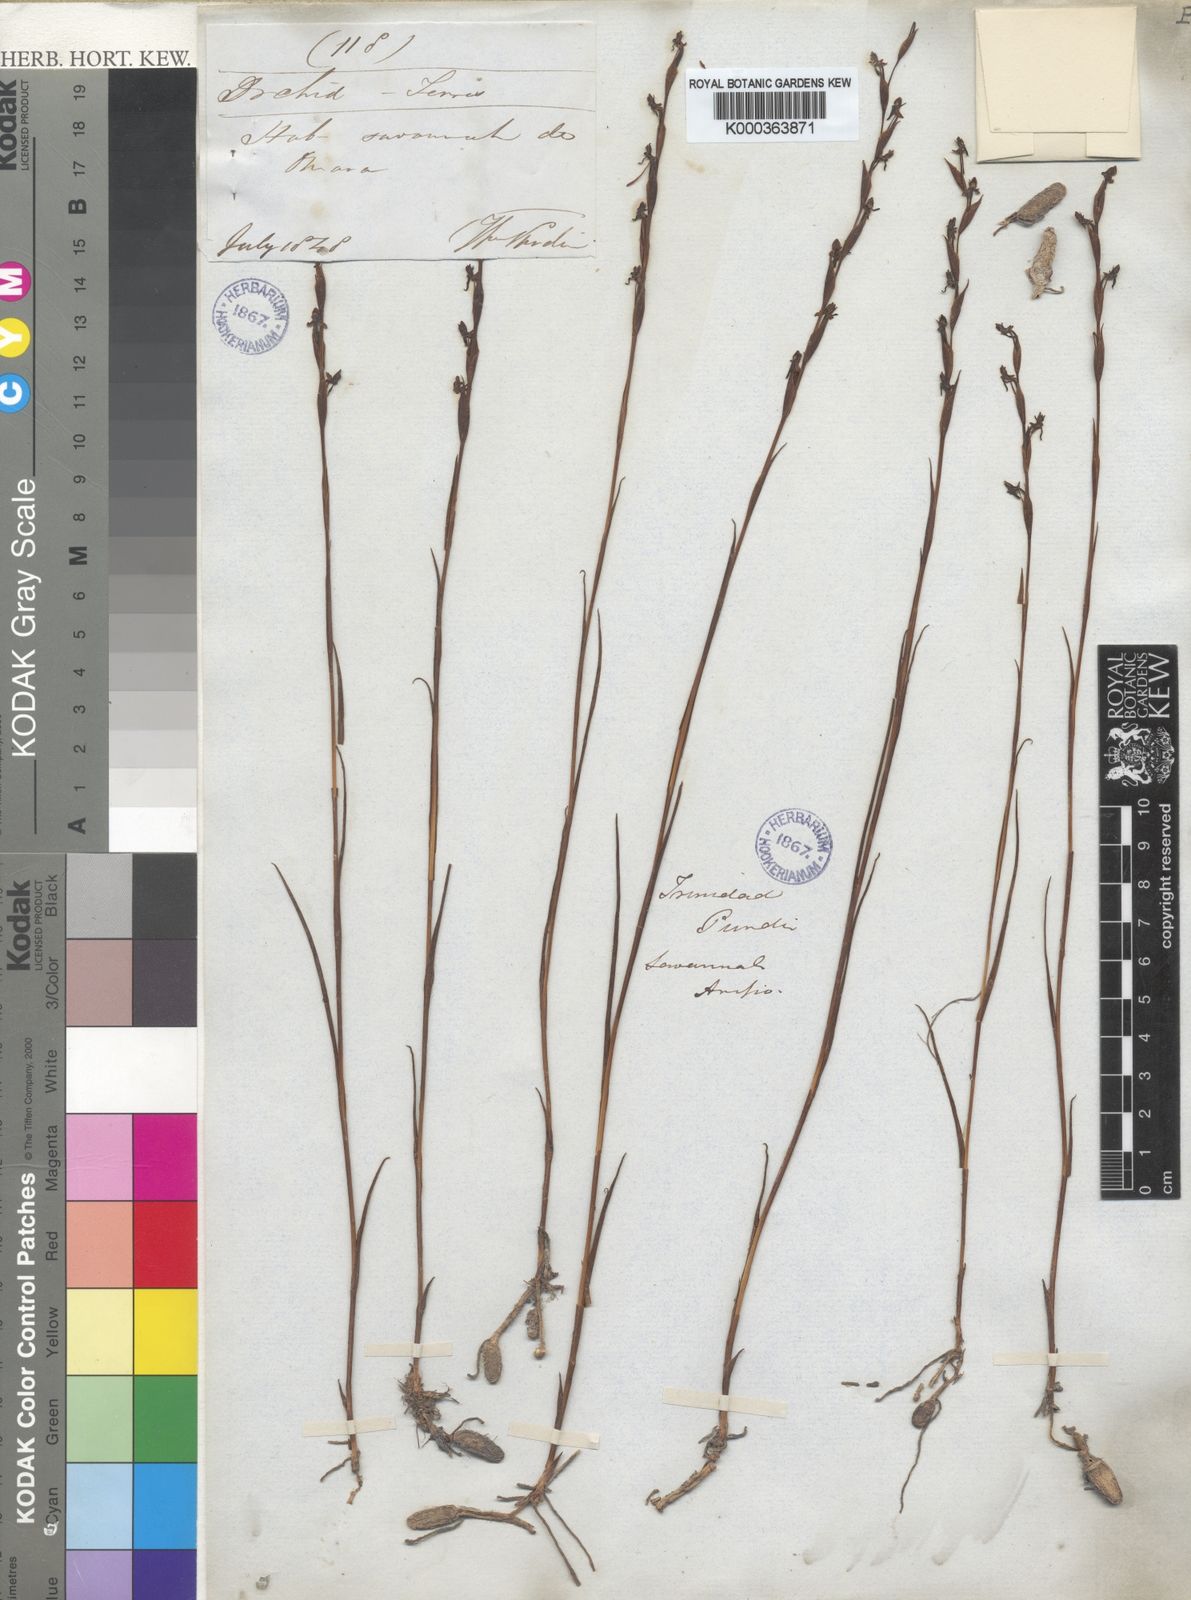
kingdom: Plantae
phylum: Tracheophyta
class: Liliopsida
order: Asparagales
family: Orchidaceae
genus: Habenaria
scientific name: Habenaria leprieurii
